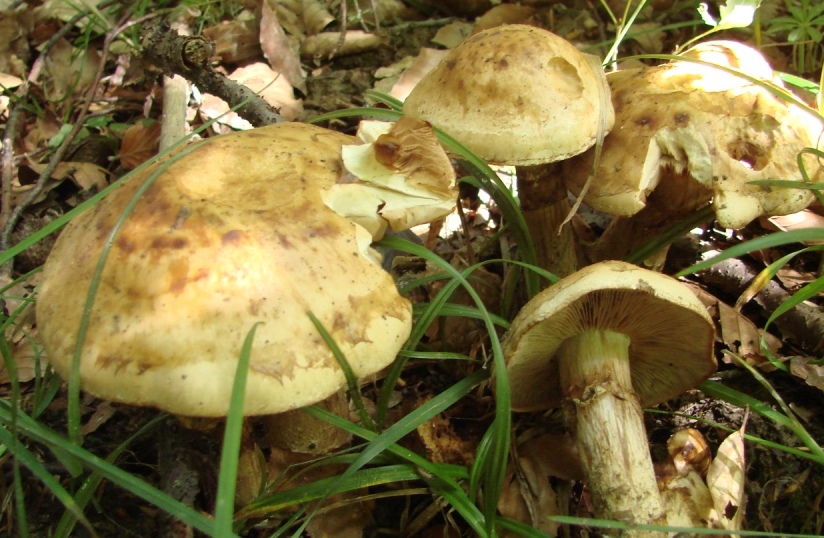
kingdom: Fungi
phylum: Basidiomycota
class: Agaricomycetes
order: Agaricales
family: Hymenogastraceae
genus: Hebeloma
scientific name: Hebeloma radicosum
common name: pælerods-tåreblad
